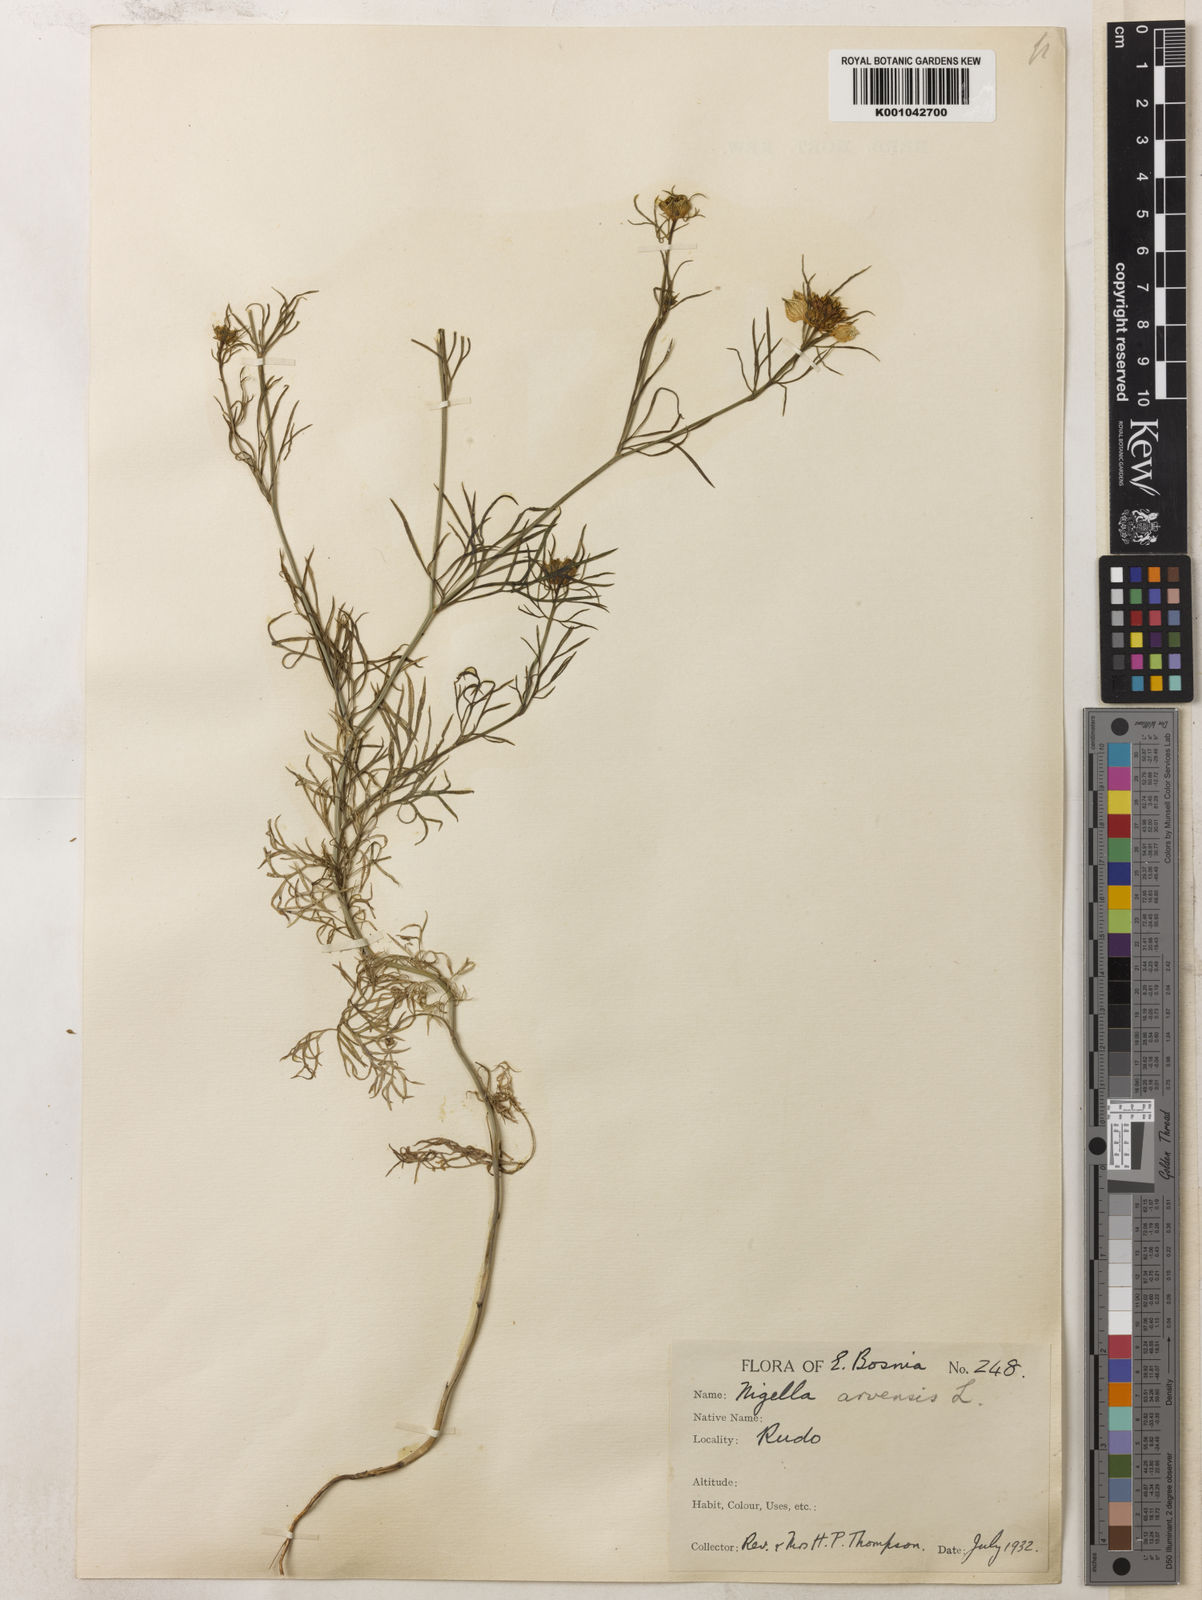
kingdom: Plantae
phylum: Tracheophyta
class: Magnoliopsida
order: Ranunculales
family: Ranunculaceae
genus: Nigella
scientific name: Nigella arvensis
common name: Wild fennel-flower
